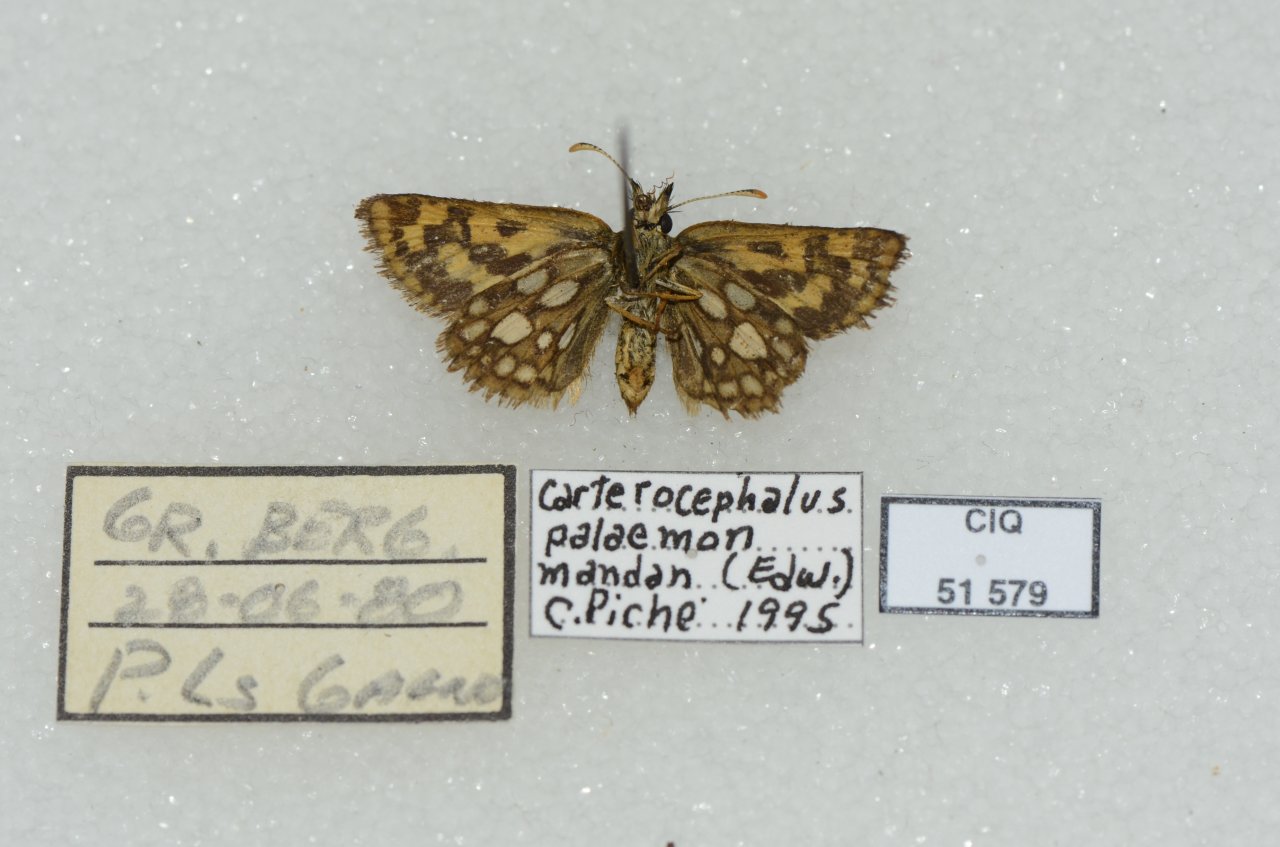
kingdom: Animalia
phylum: Arthropoda
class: Insecta
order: Lepidoptera
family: Hesperiidae
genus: Carterocephalus
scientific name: Carterocephalus palaemon
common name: Chequered Skipper
